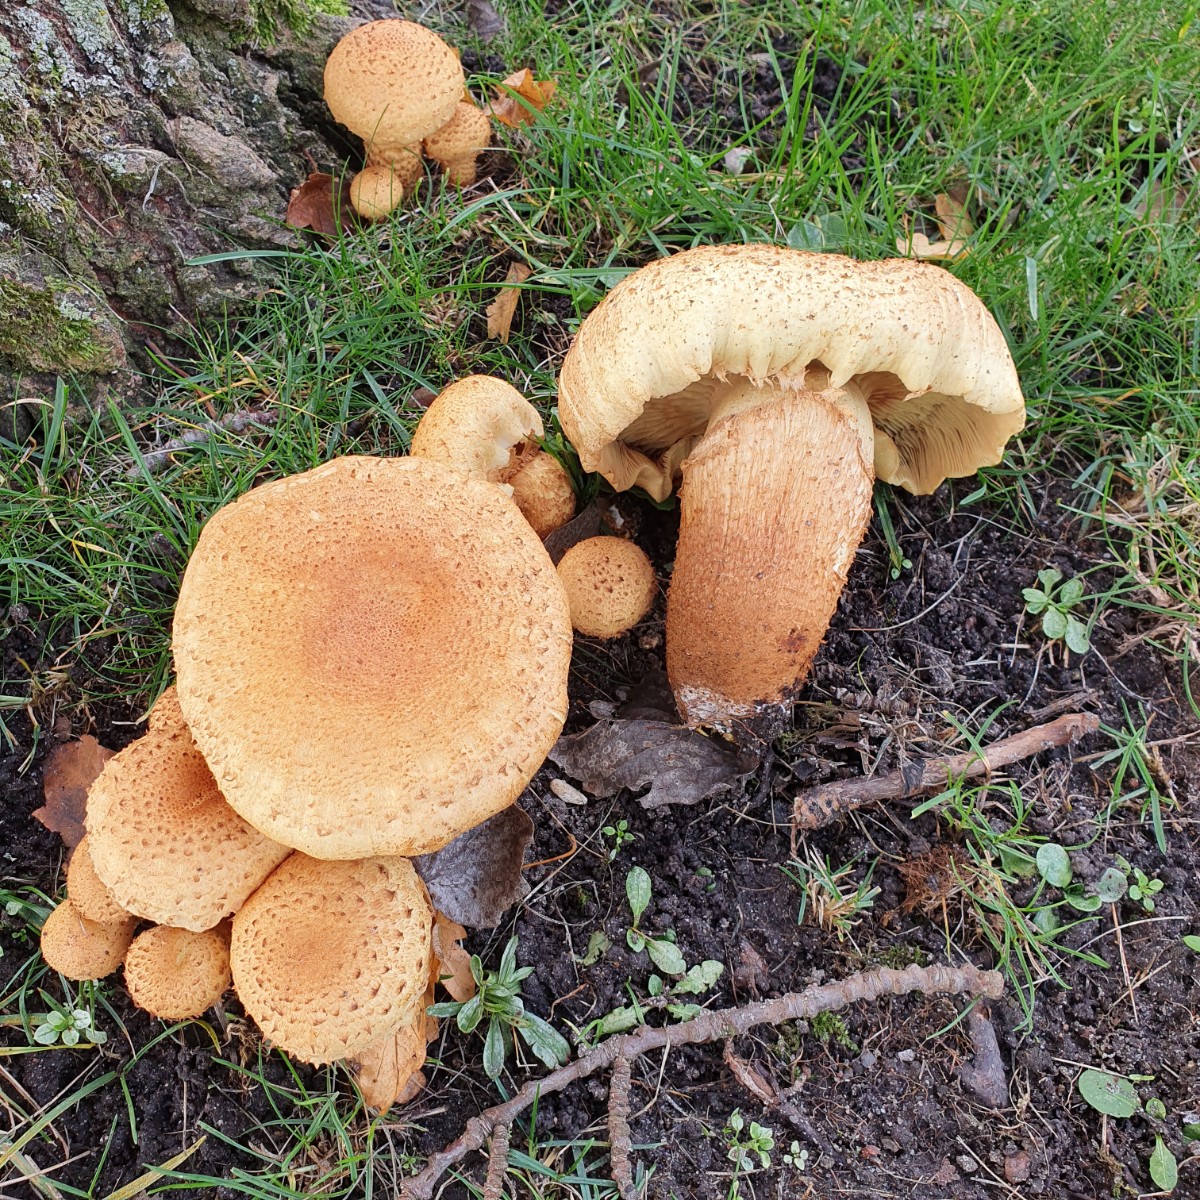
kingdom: Fungi
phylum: Basidiomycota
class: Agaricomycetes
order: Agaricales
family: Strophariaceae
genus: Pholiota
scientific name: Pholiota squarrosa
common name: krumskællet skælhat
